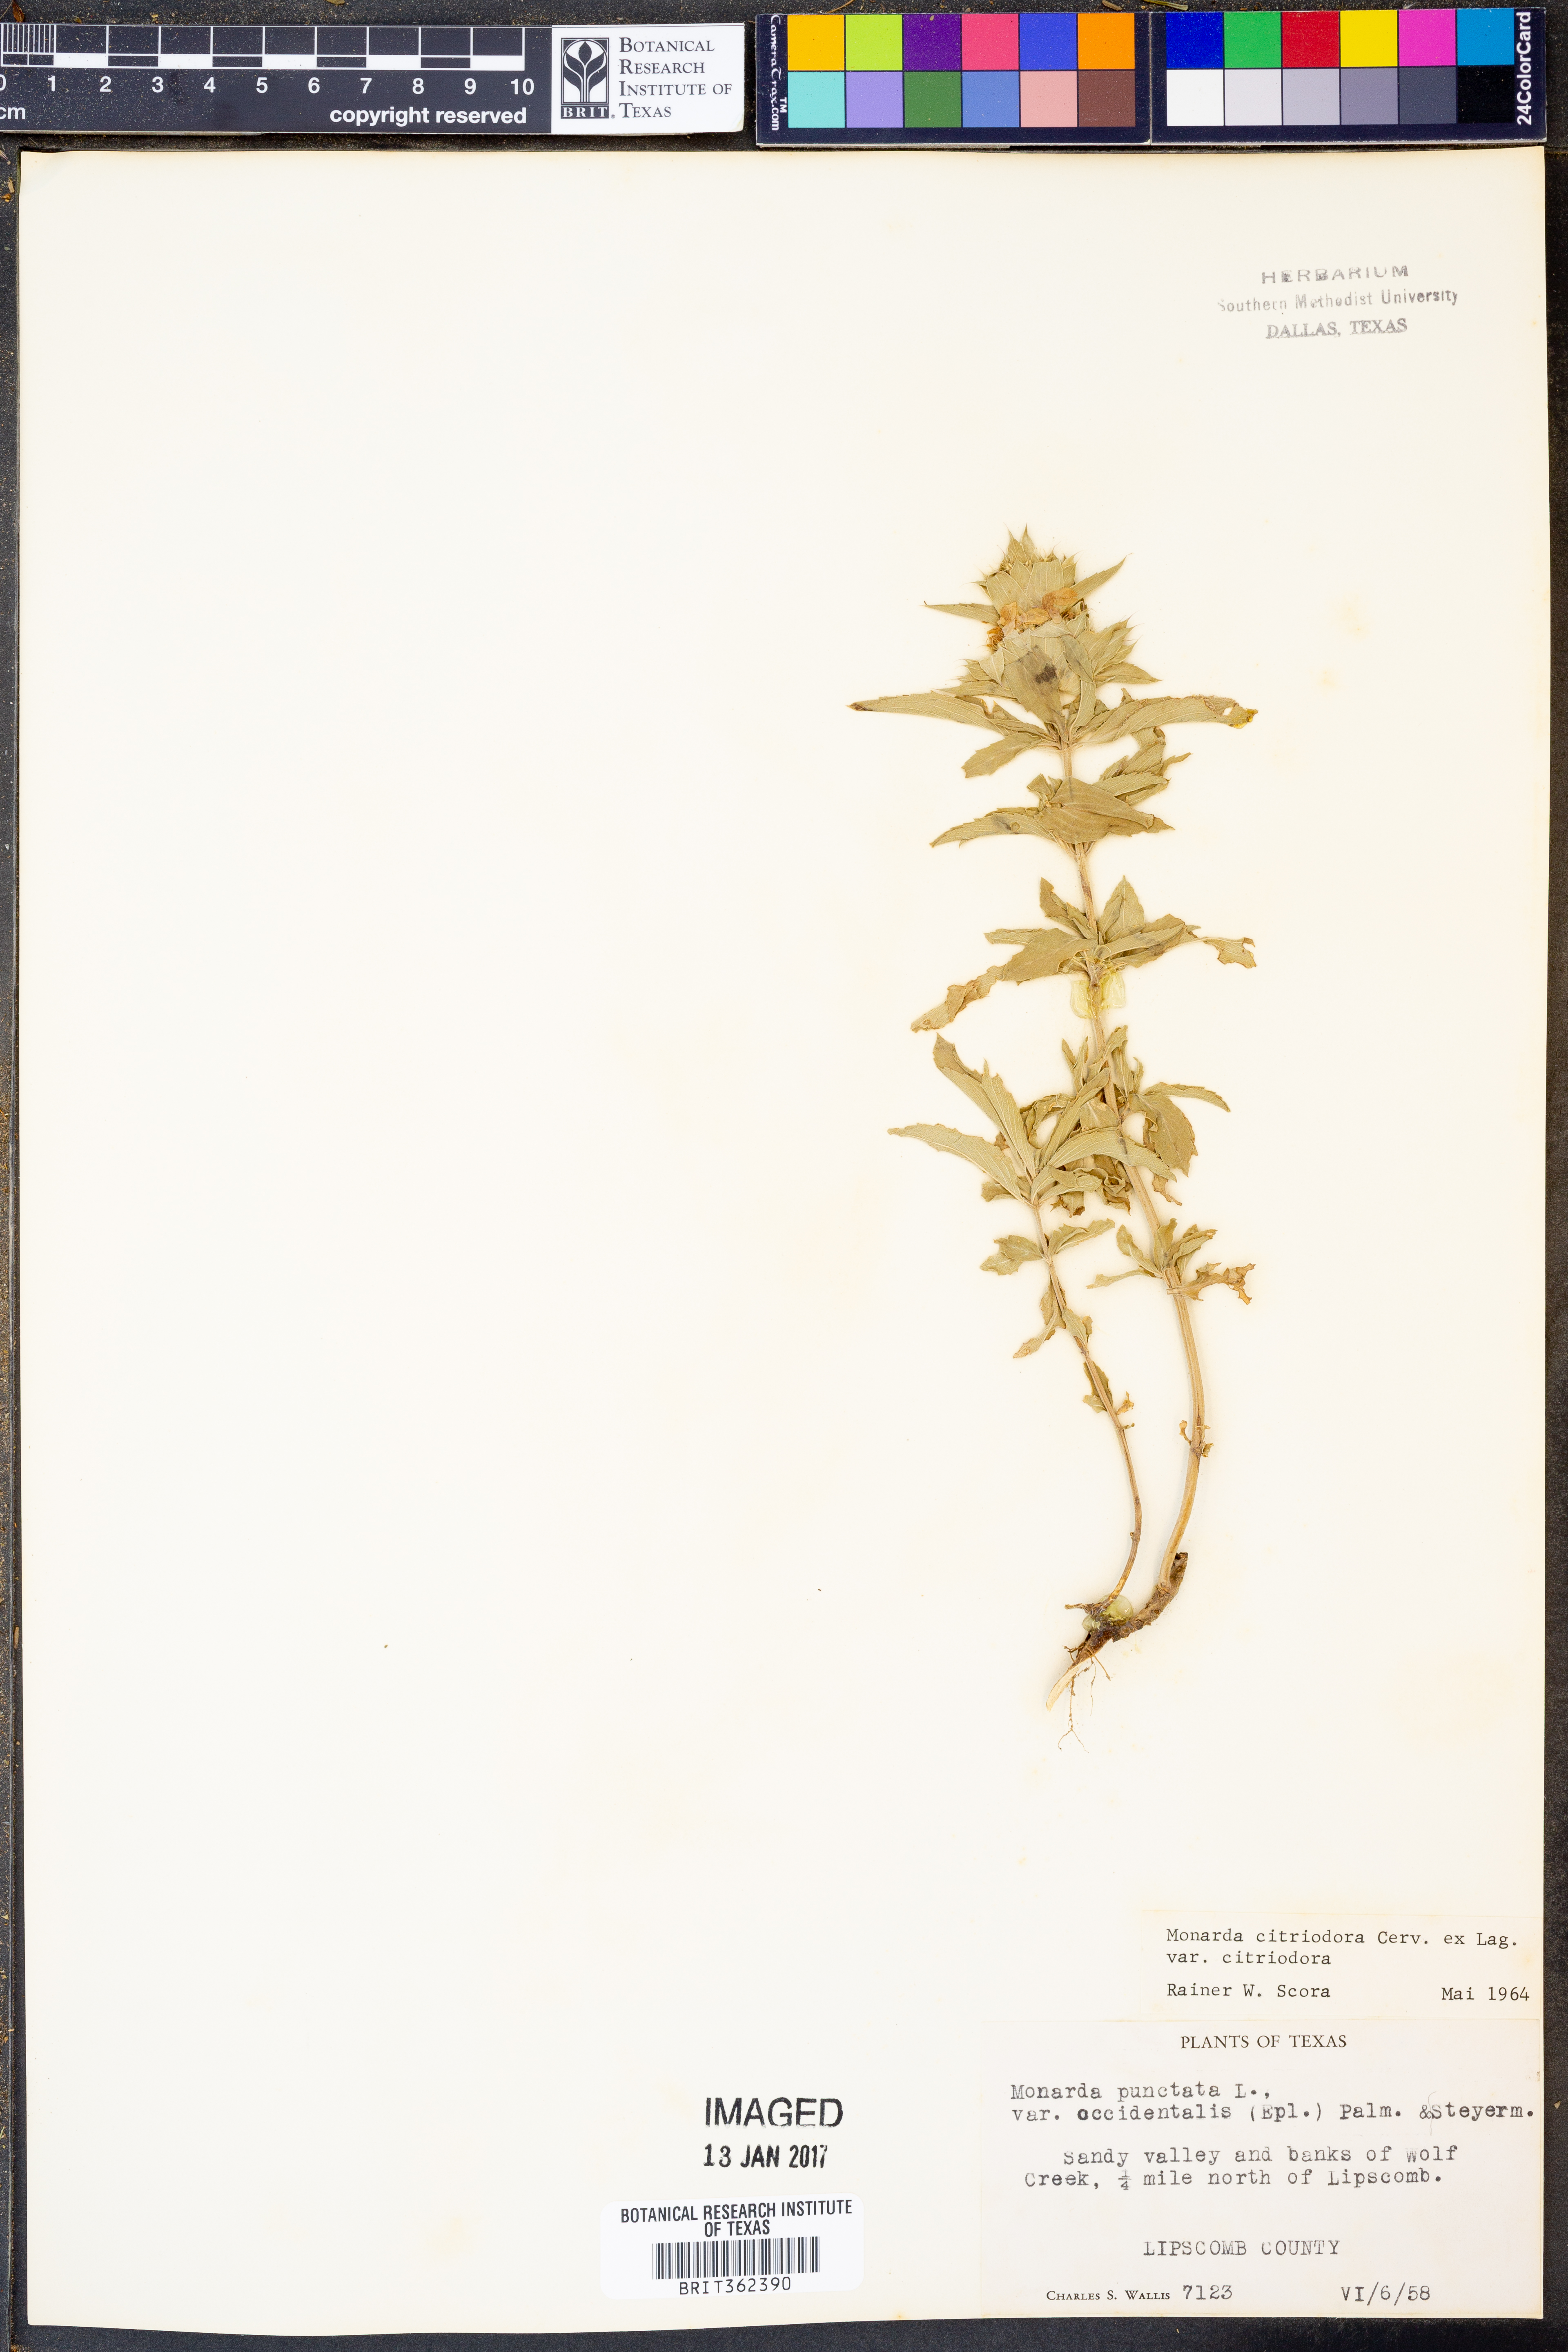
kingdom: Plantae
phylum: Tracheophyta
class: Magnoliopsida
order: Lamiales
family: Lamiaceae
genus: Monarda
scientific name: Monarda citriodora
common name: Lemon beebalm
